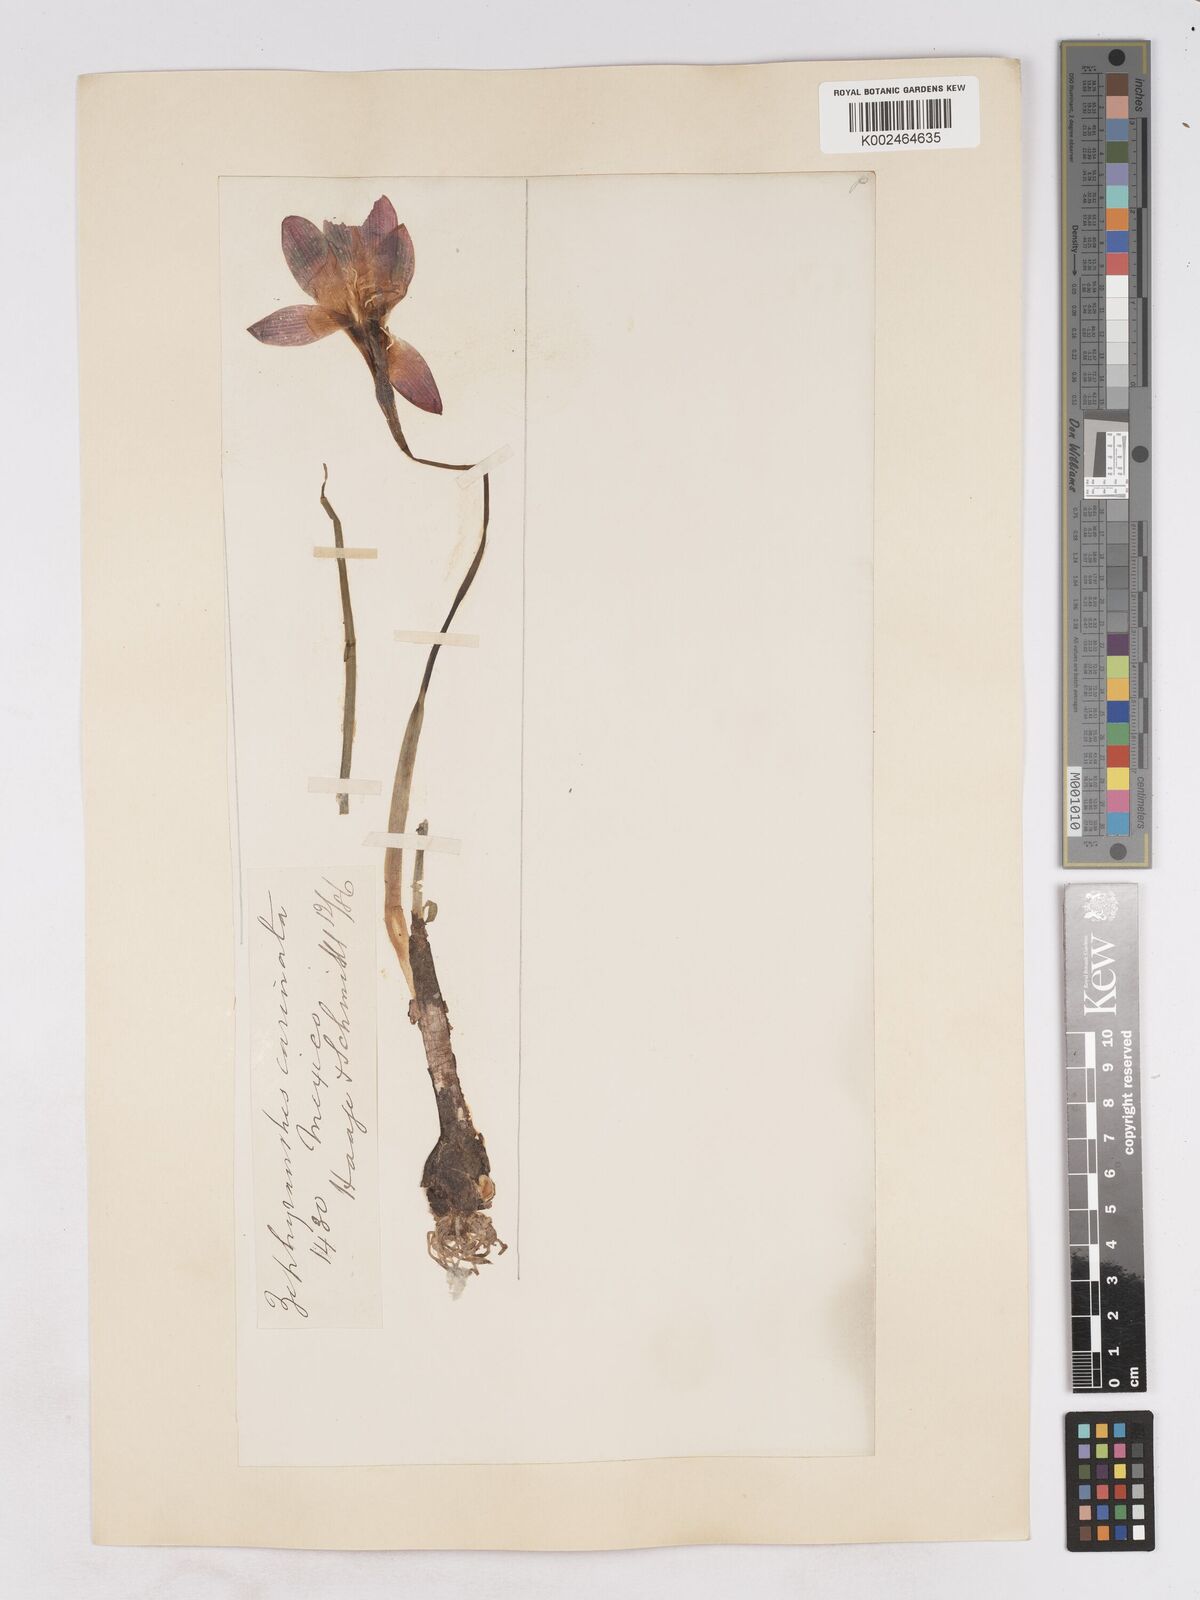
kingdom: Plantae
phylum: Tracheophyta
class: Liliopsida
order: Asparagales
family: Amaryllidaceae
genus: Zephyranthes
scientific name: Zephyranthes minuta
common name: Pink rain lily
